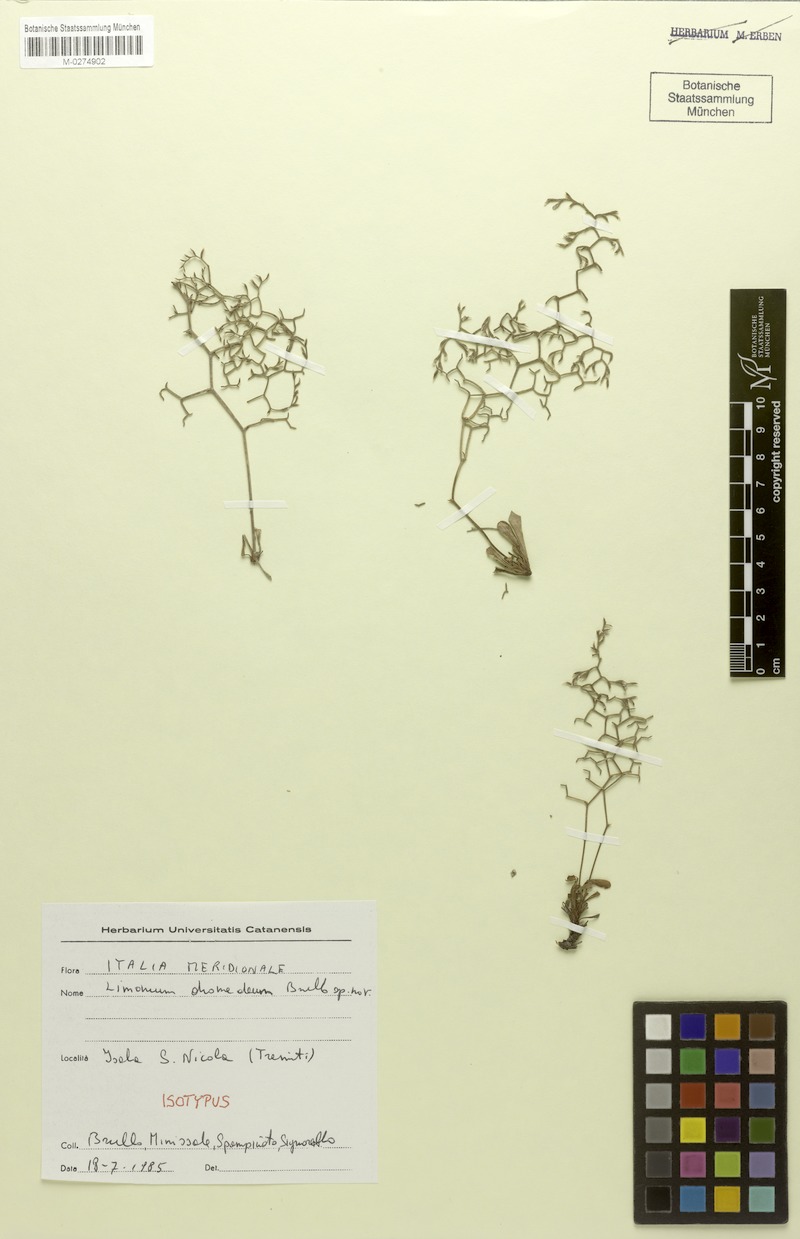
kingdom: Plantae
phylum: Tracheophyta
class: Magnoliopsida
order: Caryophyllales
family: Plumbaginaceae
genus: Limonium
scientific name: Limonium diomedeum
